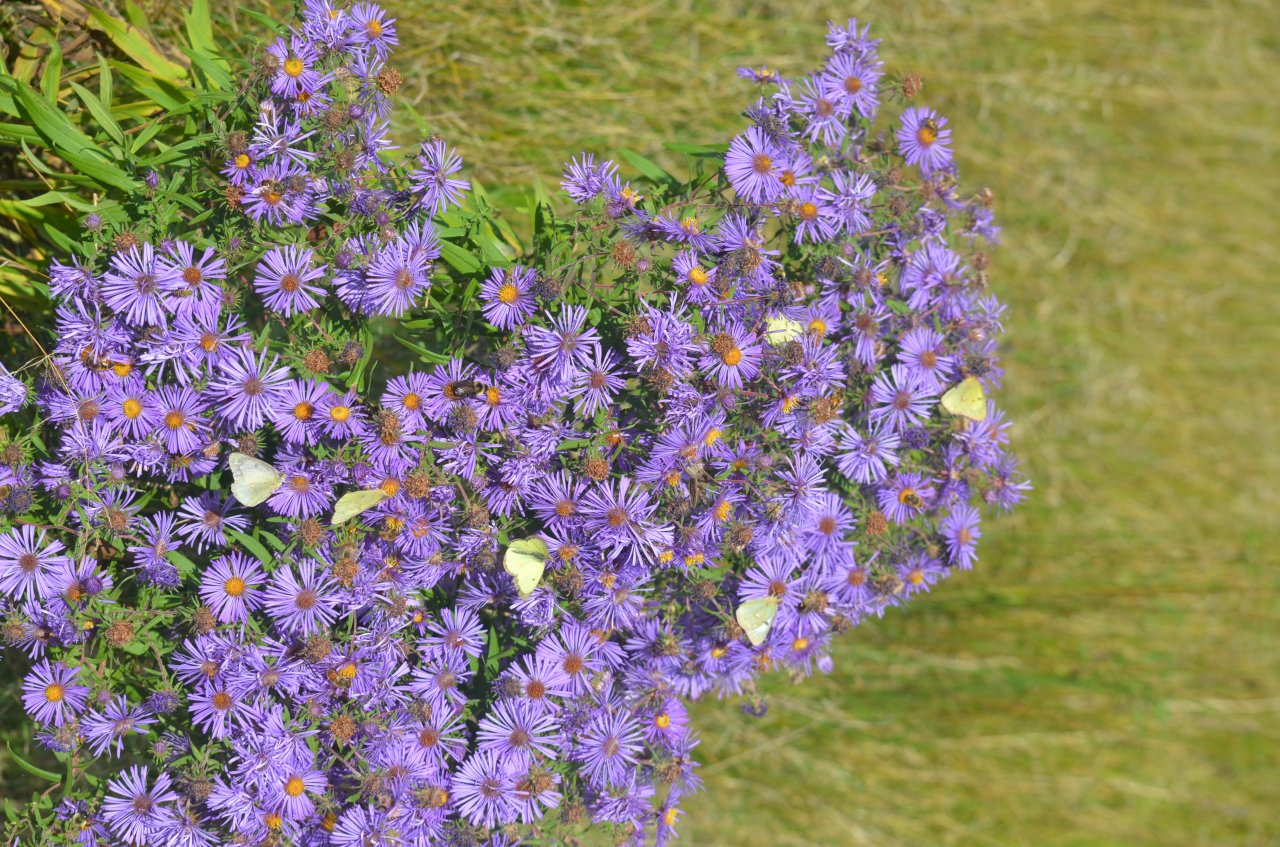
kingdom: Animalia
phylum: Arthropoda
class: Insecta
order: Lepidoptera
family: Pieridae
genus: Colias
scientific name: Colias philodice
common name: Clouded Sulphur
